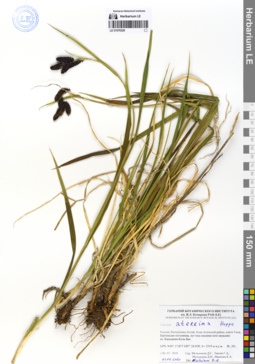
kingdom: Plantae
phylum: Tracheophyta
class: Liliopsida
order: Poales
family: Cyperaceae
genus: Carex
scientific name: Carex aterrima
